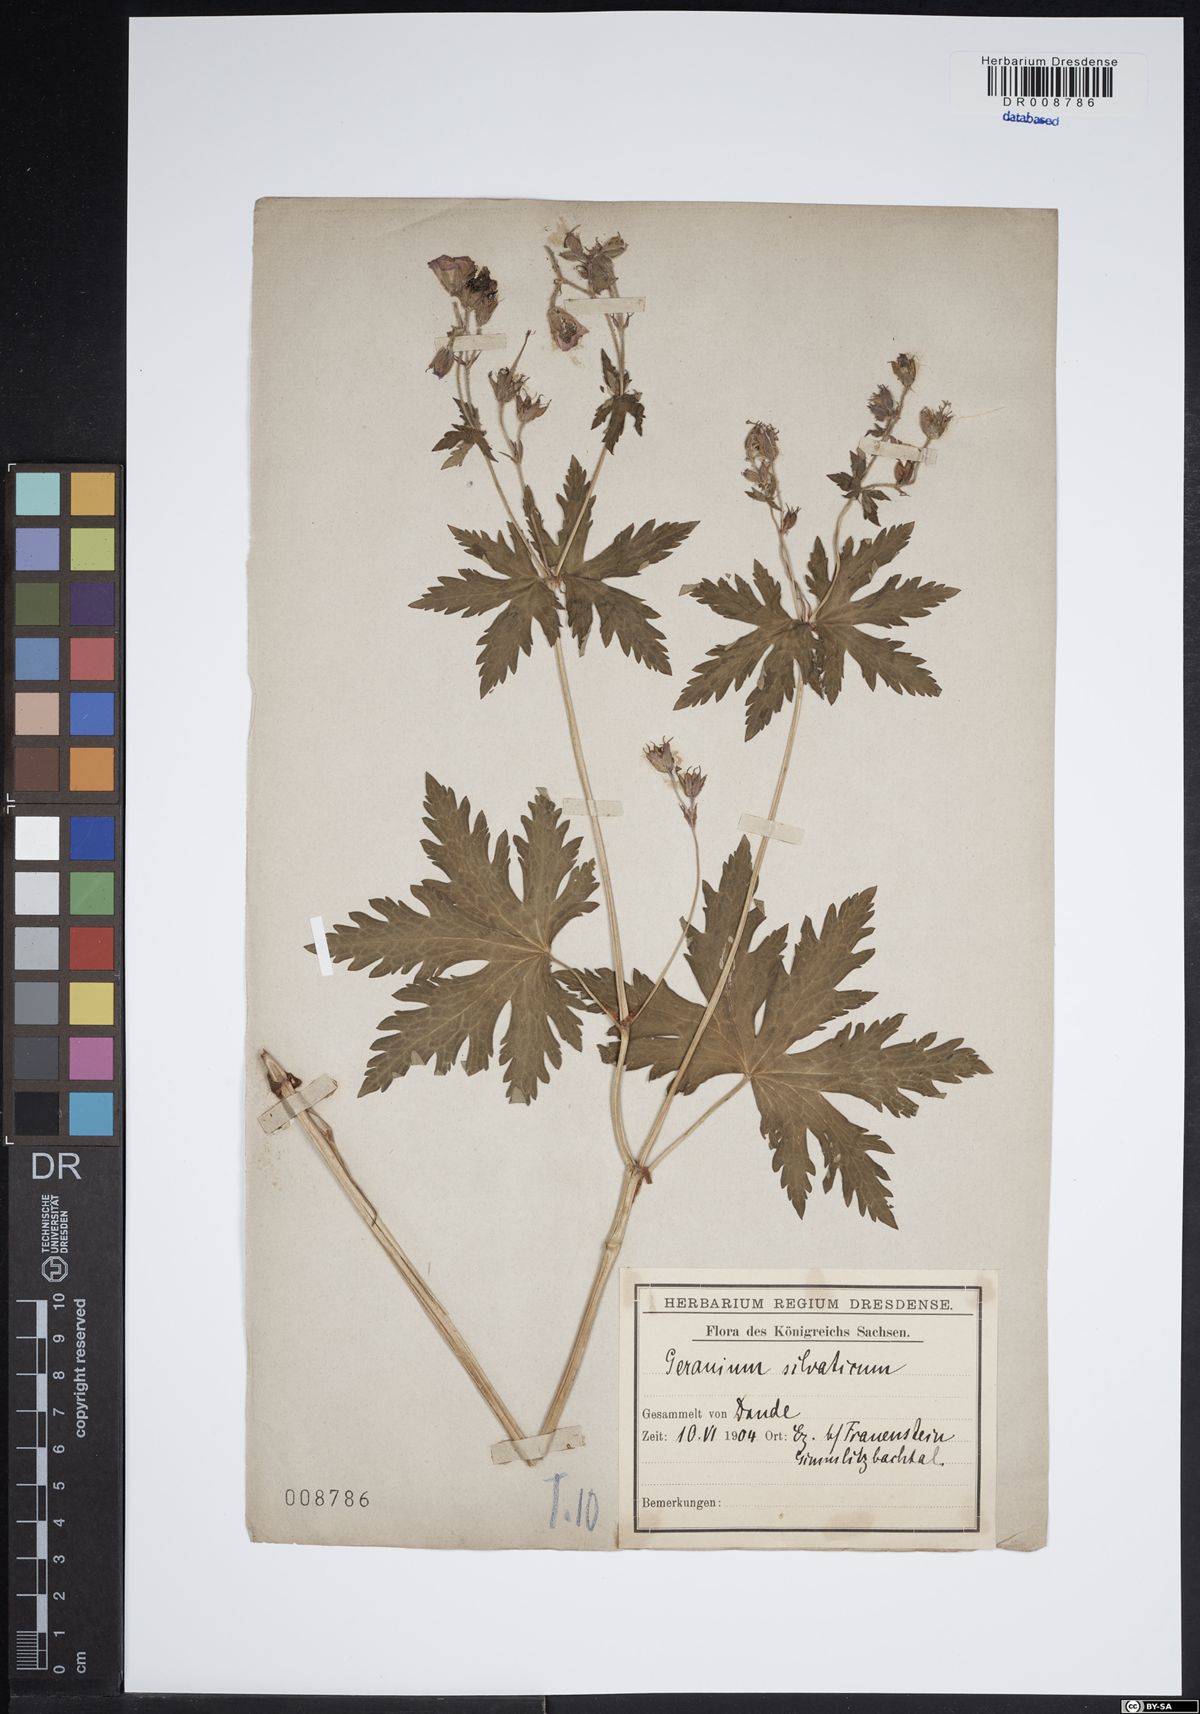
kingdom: Plantae
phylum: Tracheophyta
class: Magnoliopsida
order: Geraniales
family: Geraniaceae
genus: Geranium
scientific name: Geranium sylvaticum
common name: Wood crane's-bill
